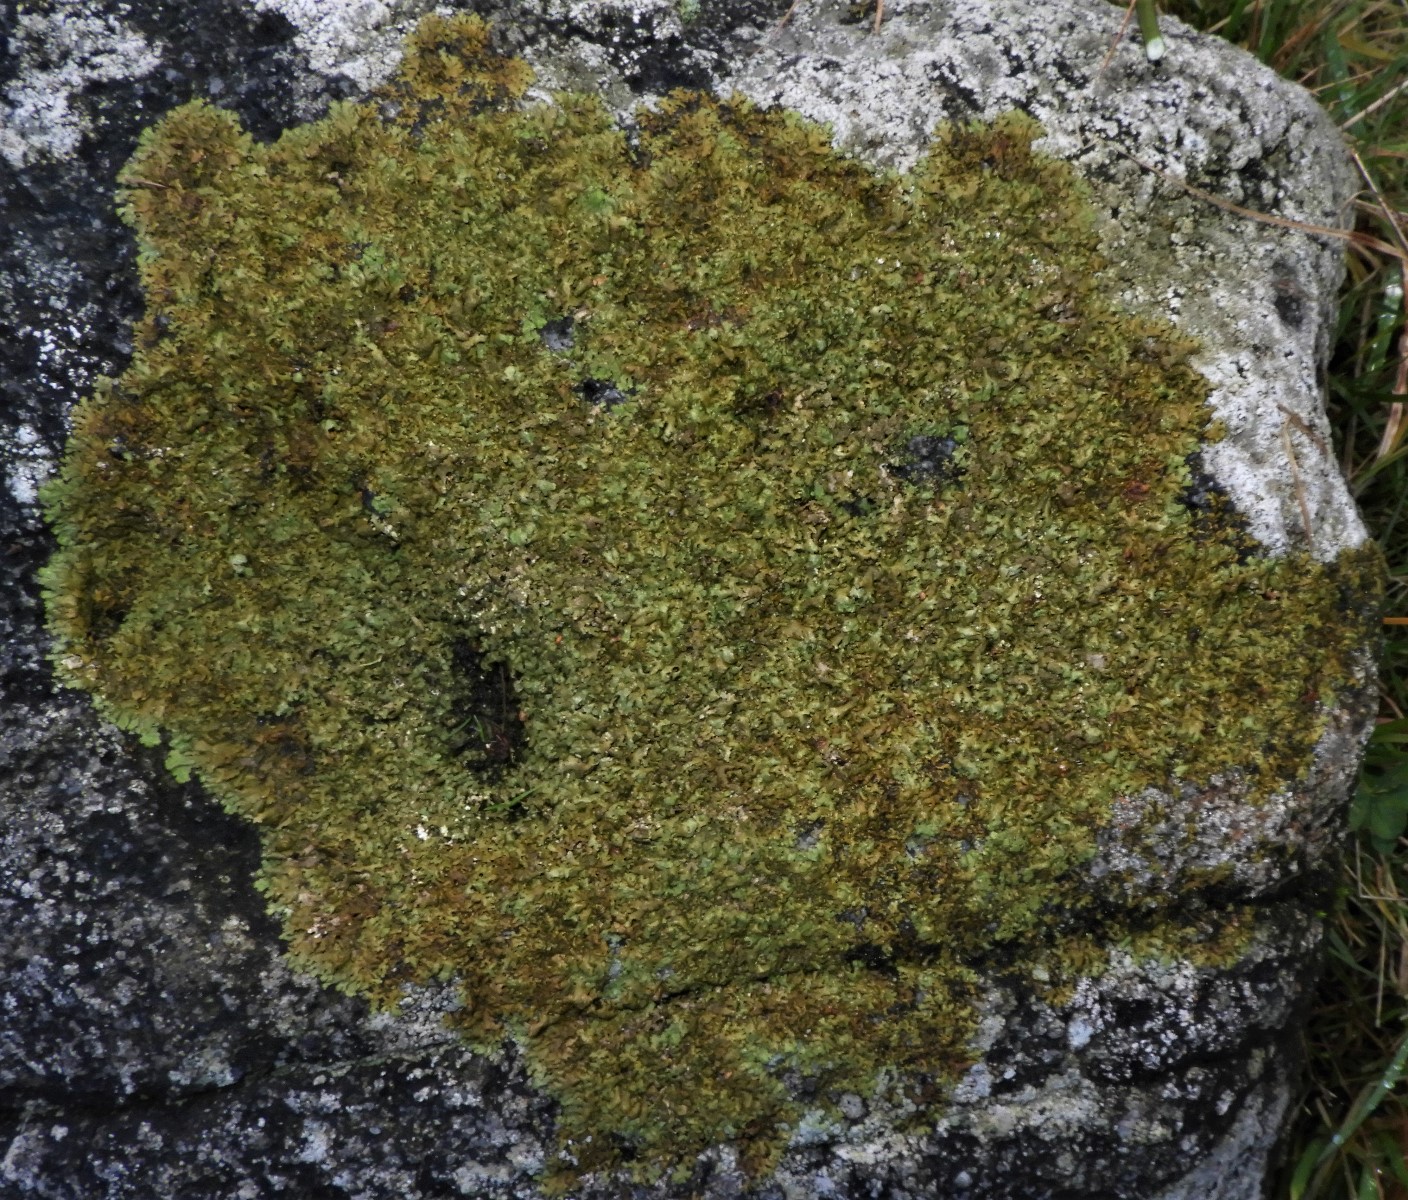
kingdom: Fungi
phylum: Ascomycota
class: Lecanoromycetes
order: Lecanorales
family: Parmeliaceae
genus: Xanthoparmelia
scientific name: Xanthoparmelia verruculifera
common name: småknoppet skållav
